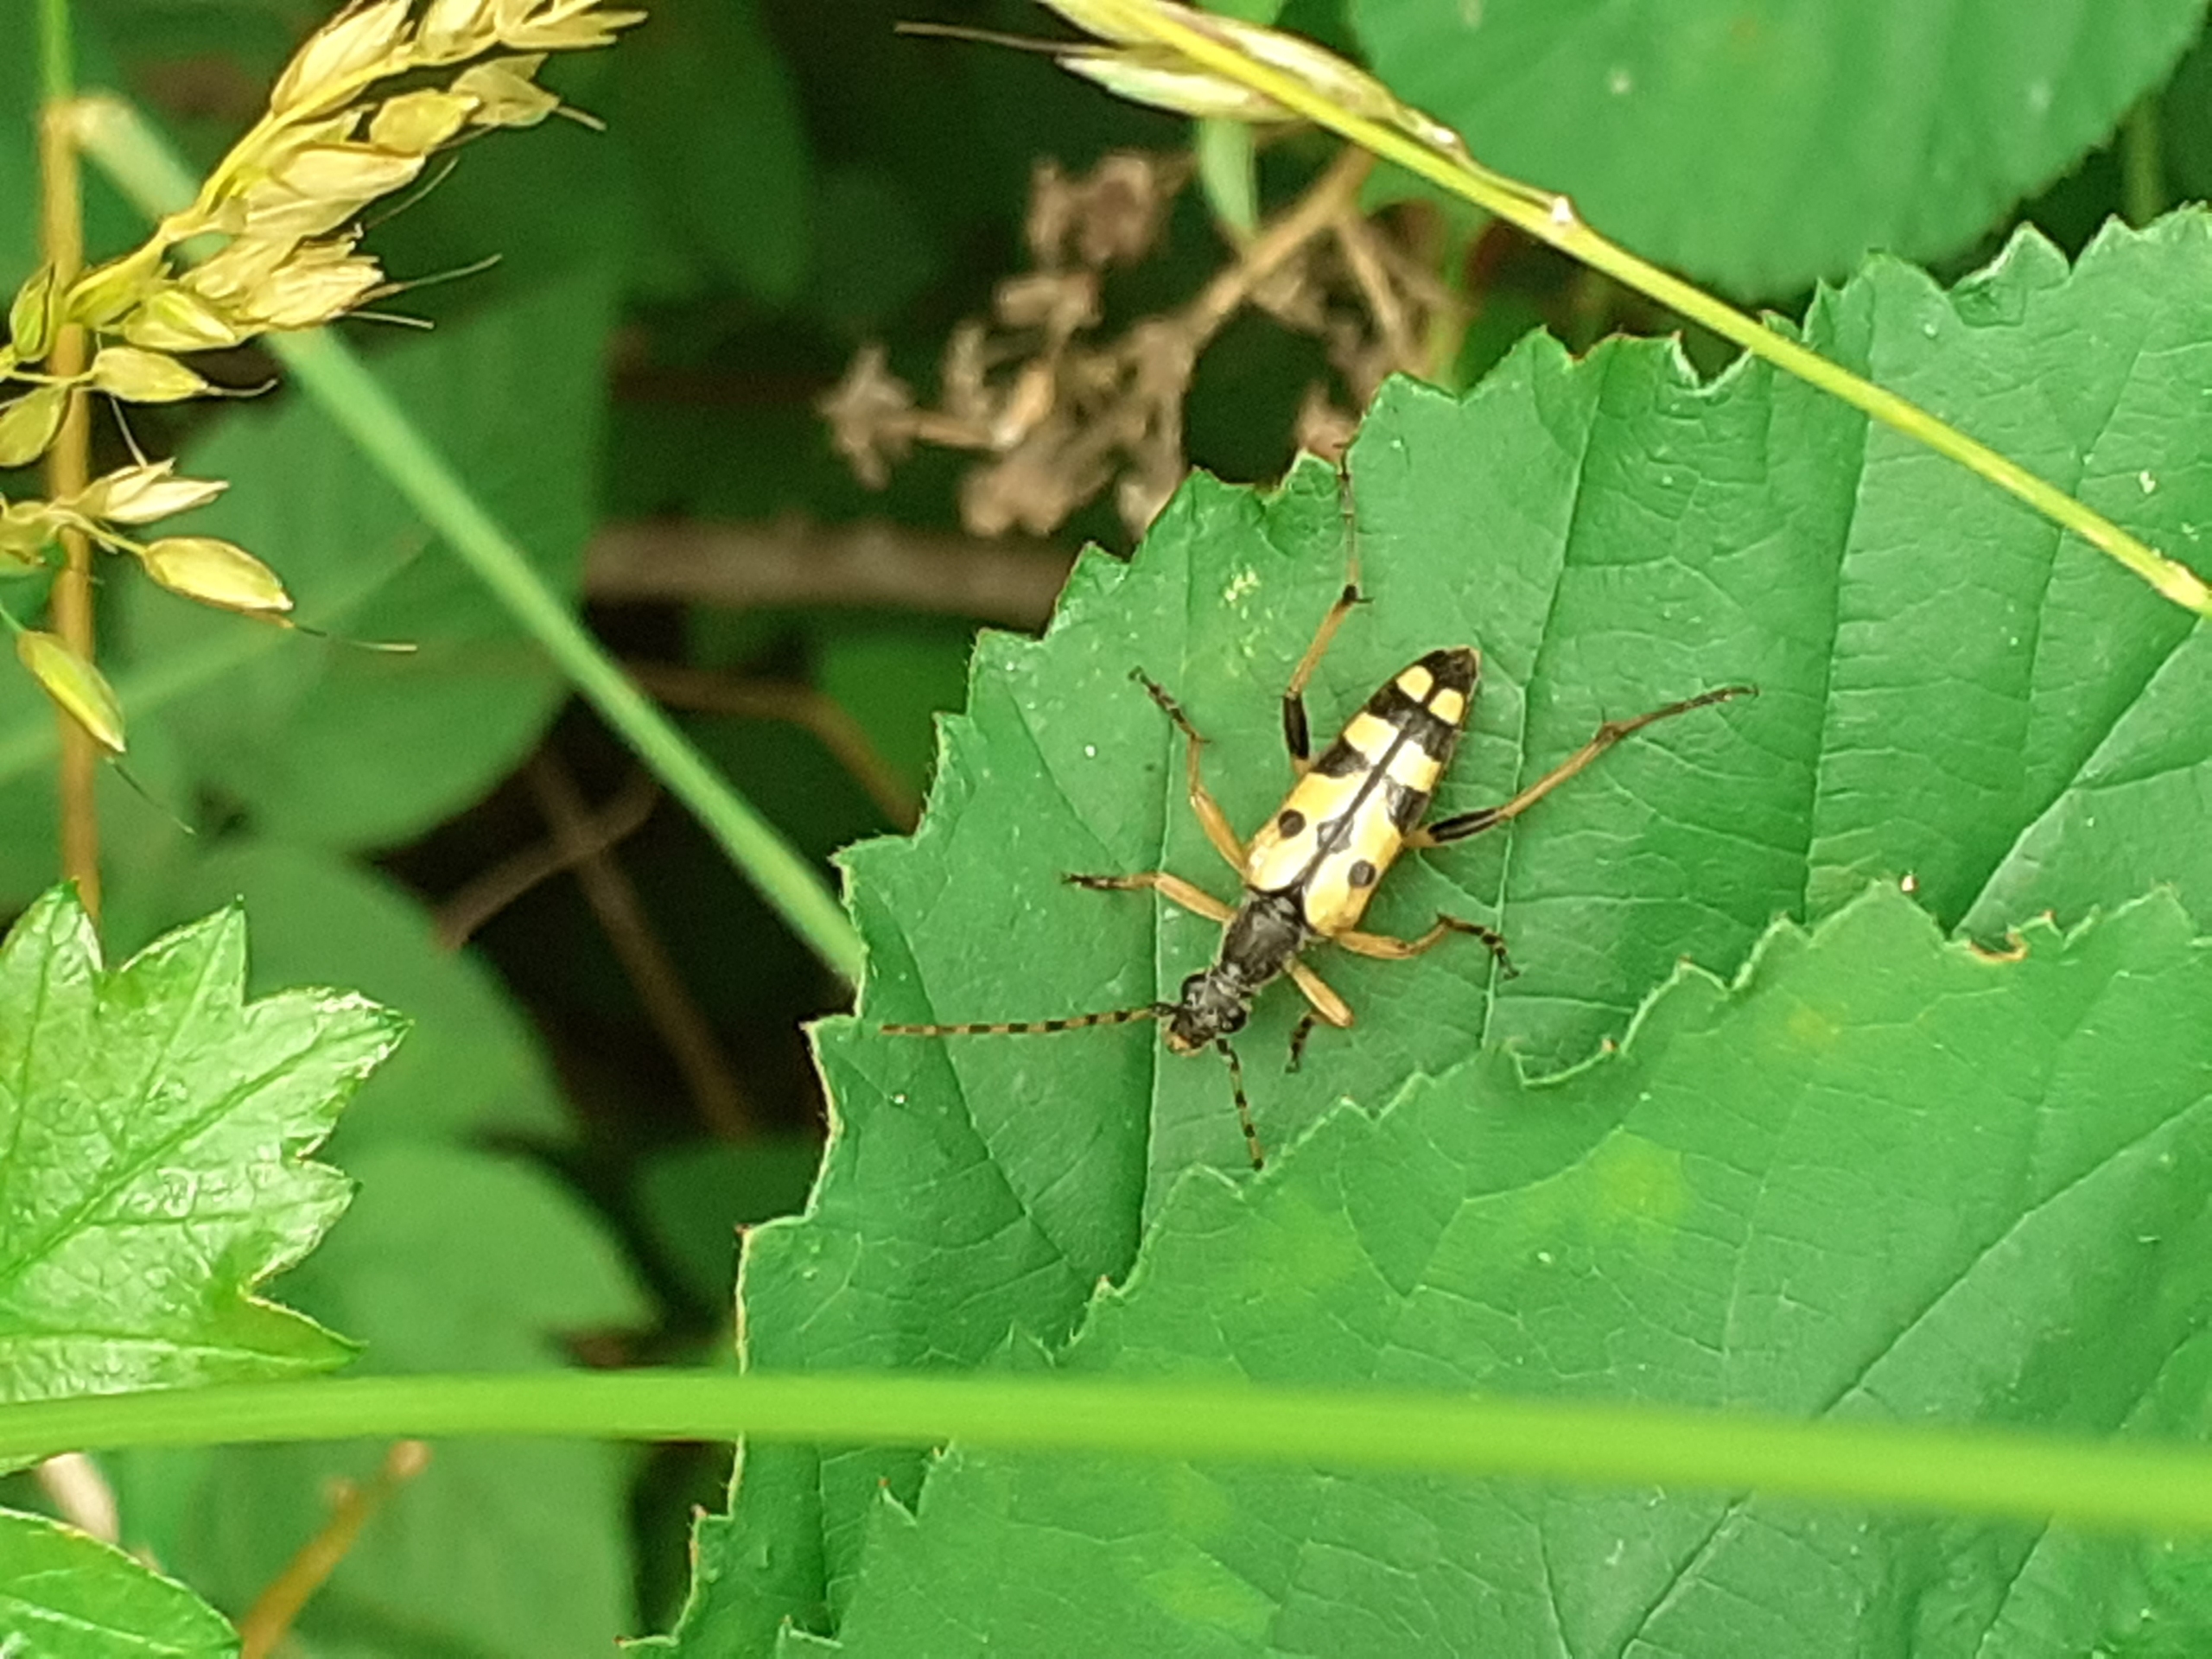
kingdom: Animalia
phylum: Arthropoda
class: Insecta
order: Coleoptera
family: Cerambycidae
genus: Rutpela
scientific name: Rutpela maculata
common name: Sydlig blomsterbuk
